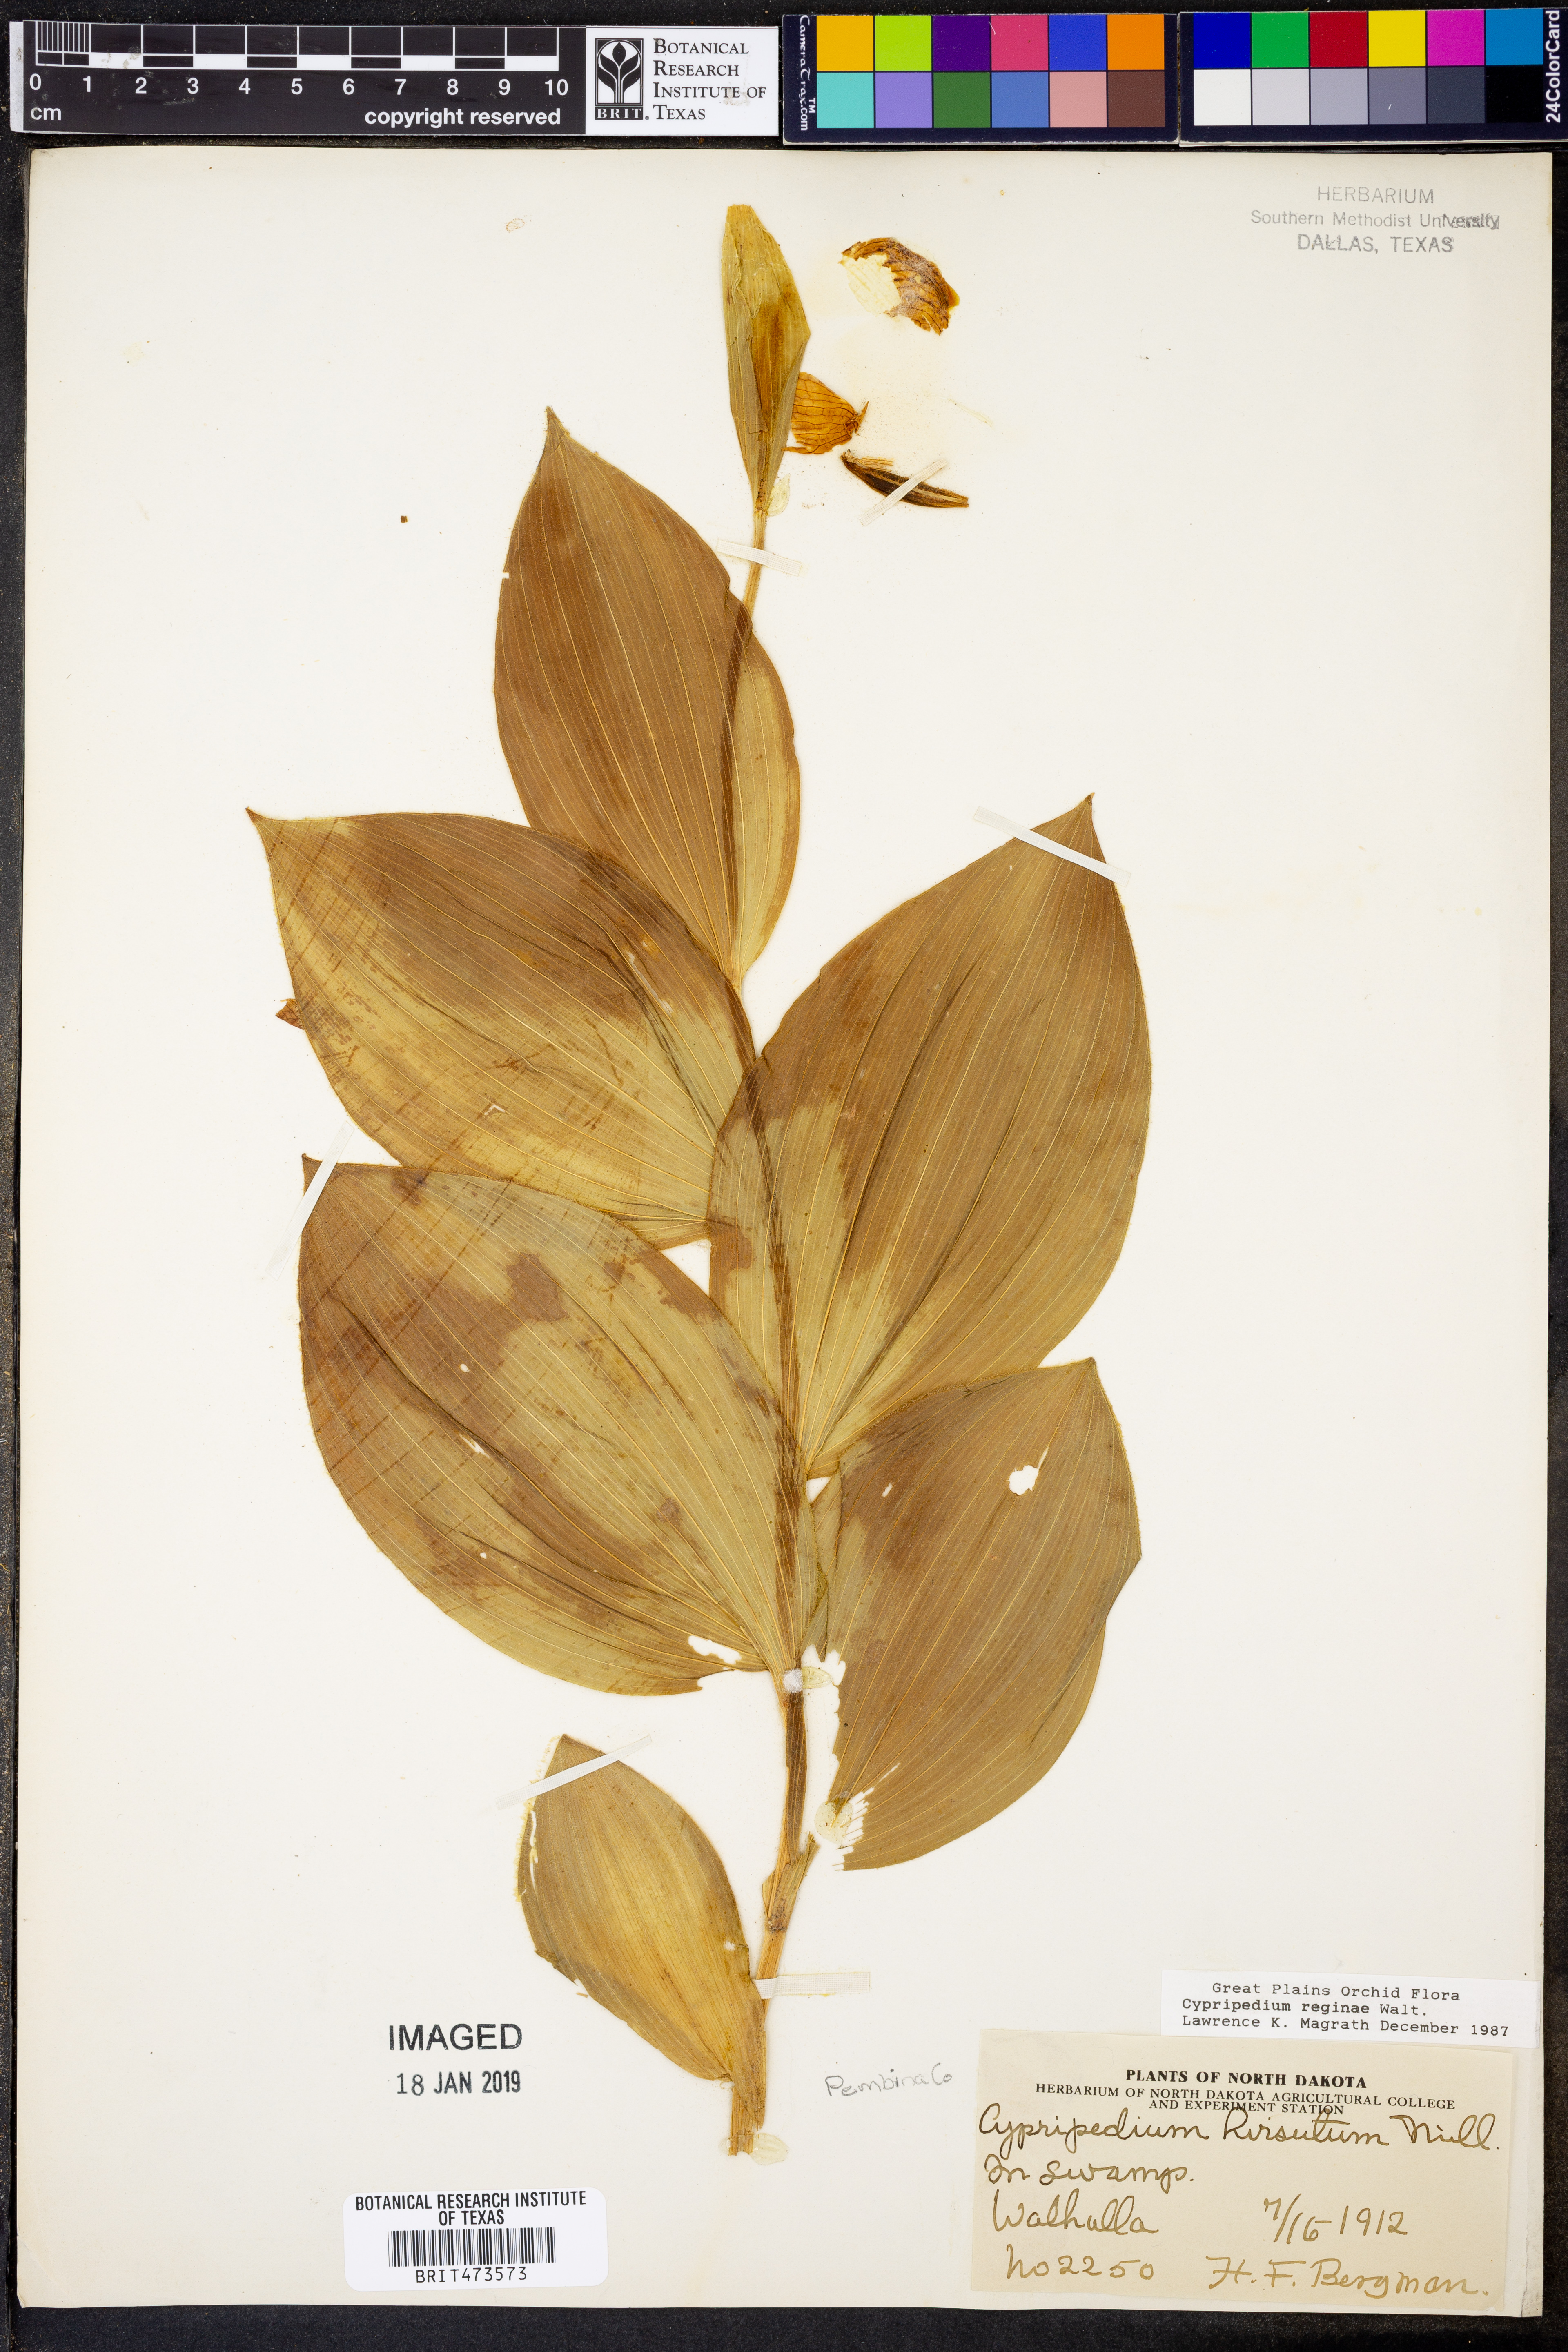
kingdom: Plantae
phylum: Tracheophyta
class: Liliopsida
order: Asparagales
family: Orchidaceae
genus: Cypripedium
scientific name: Cypripedium reginae
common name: Queen lady's-slipper
